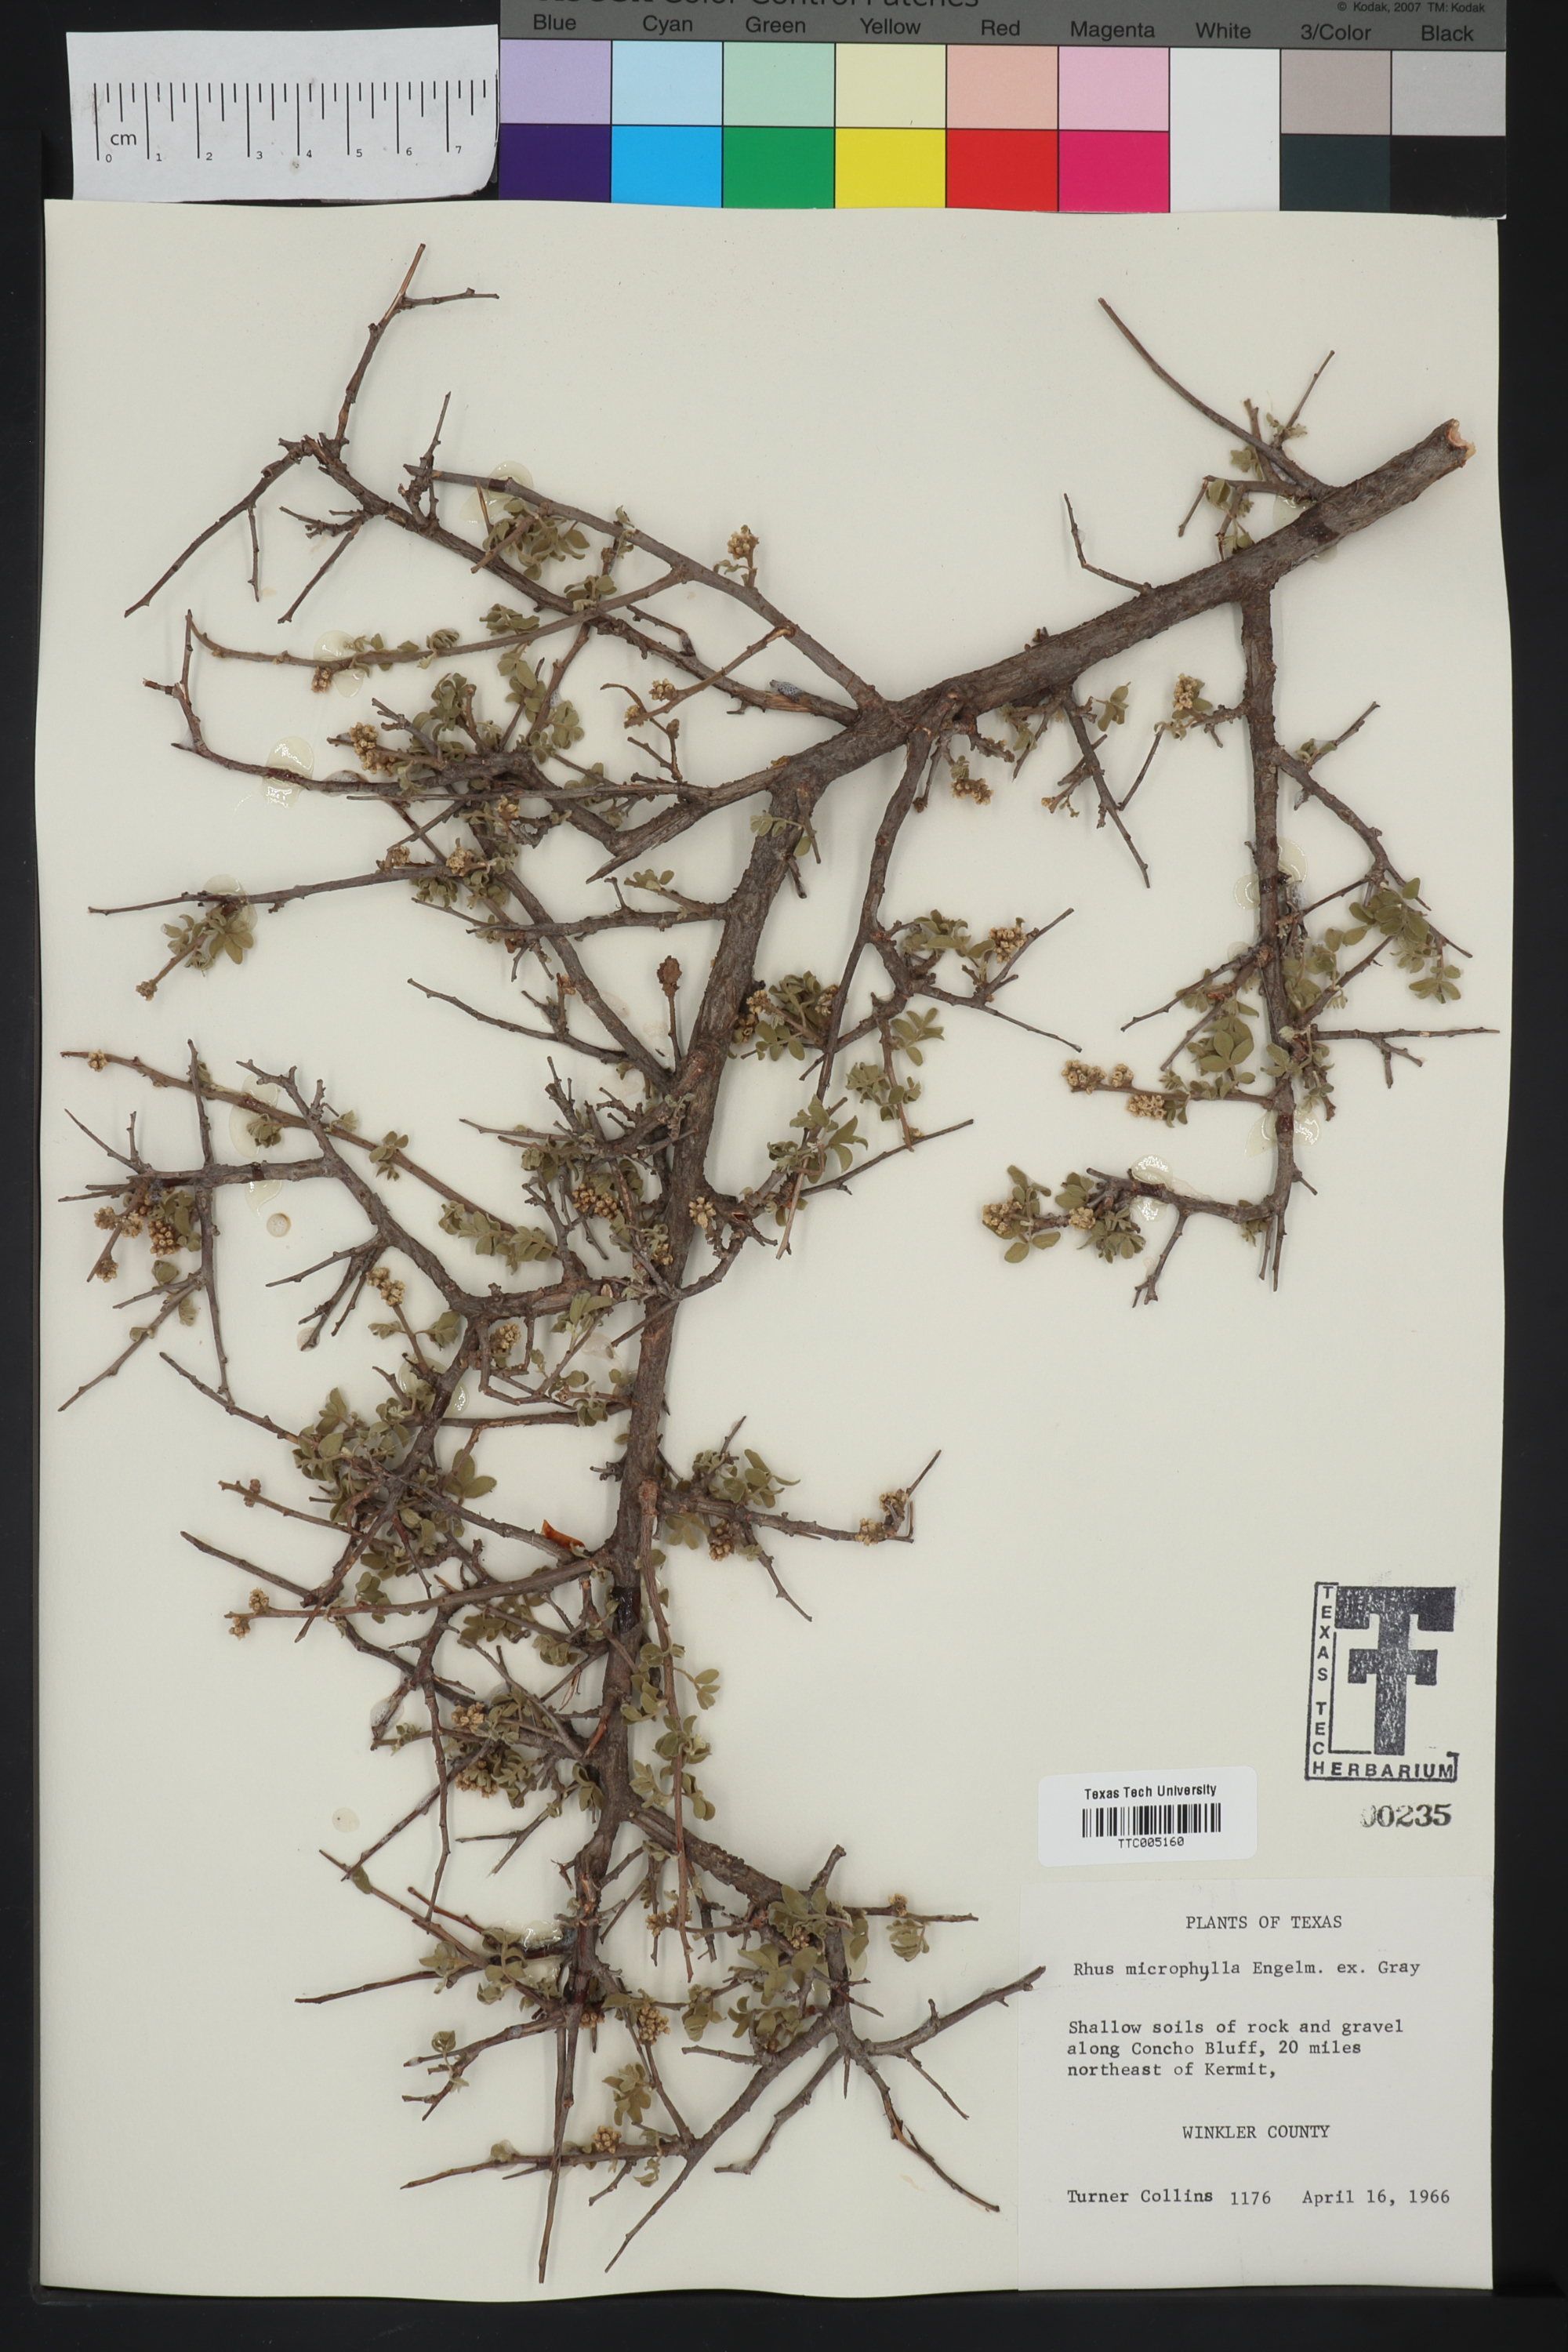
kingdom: Plantae
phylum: Tracheophyta
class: Magnoliopsida
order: Sapindales
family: Anacardiaceae
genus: Rhus
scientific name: Rhus microphylla
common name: Desert sumac
